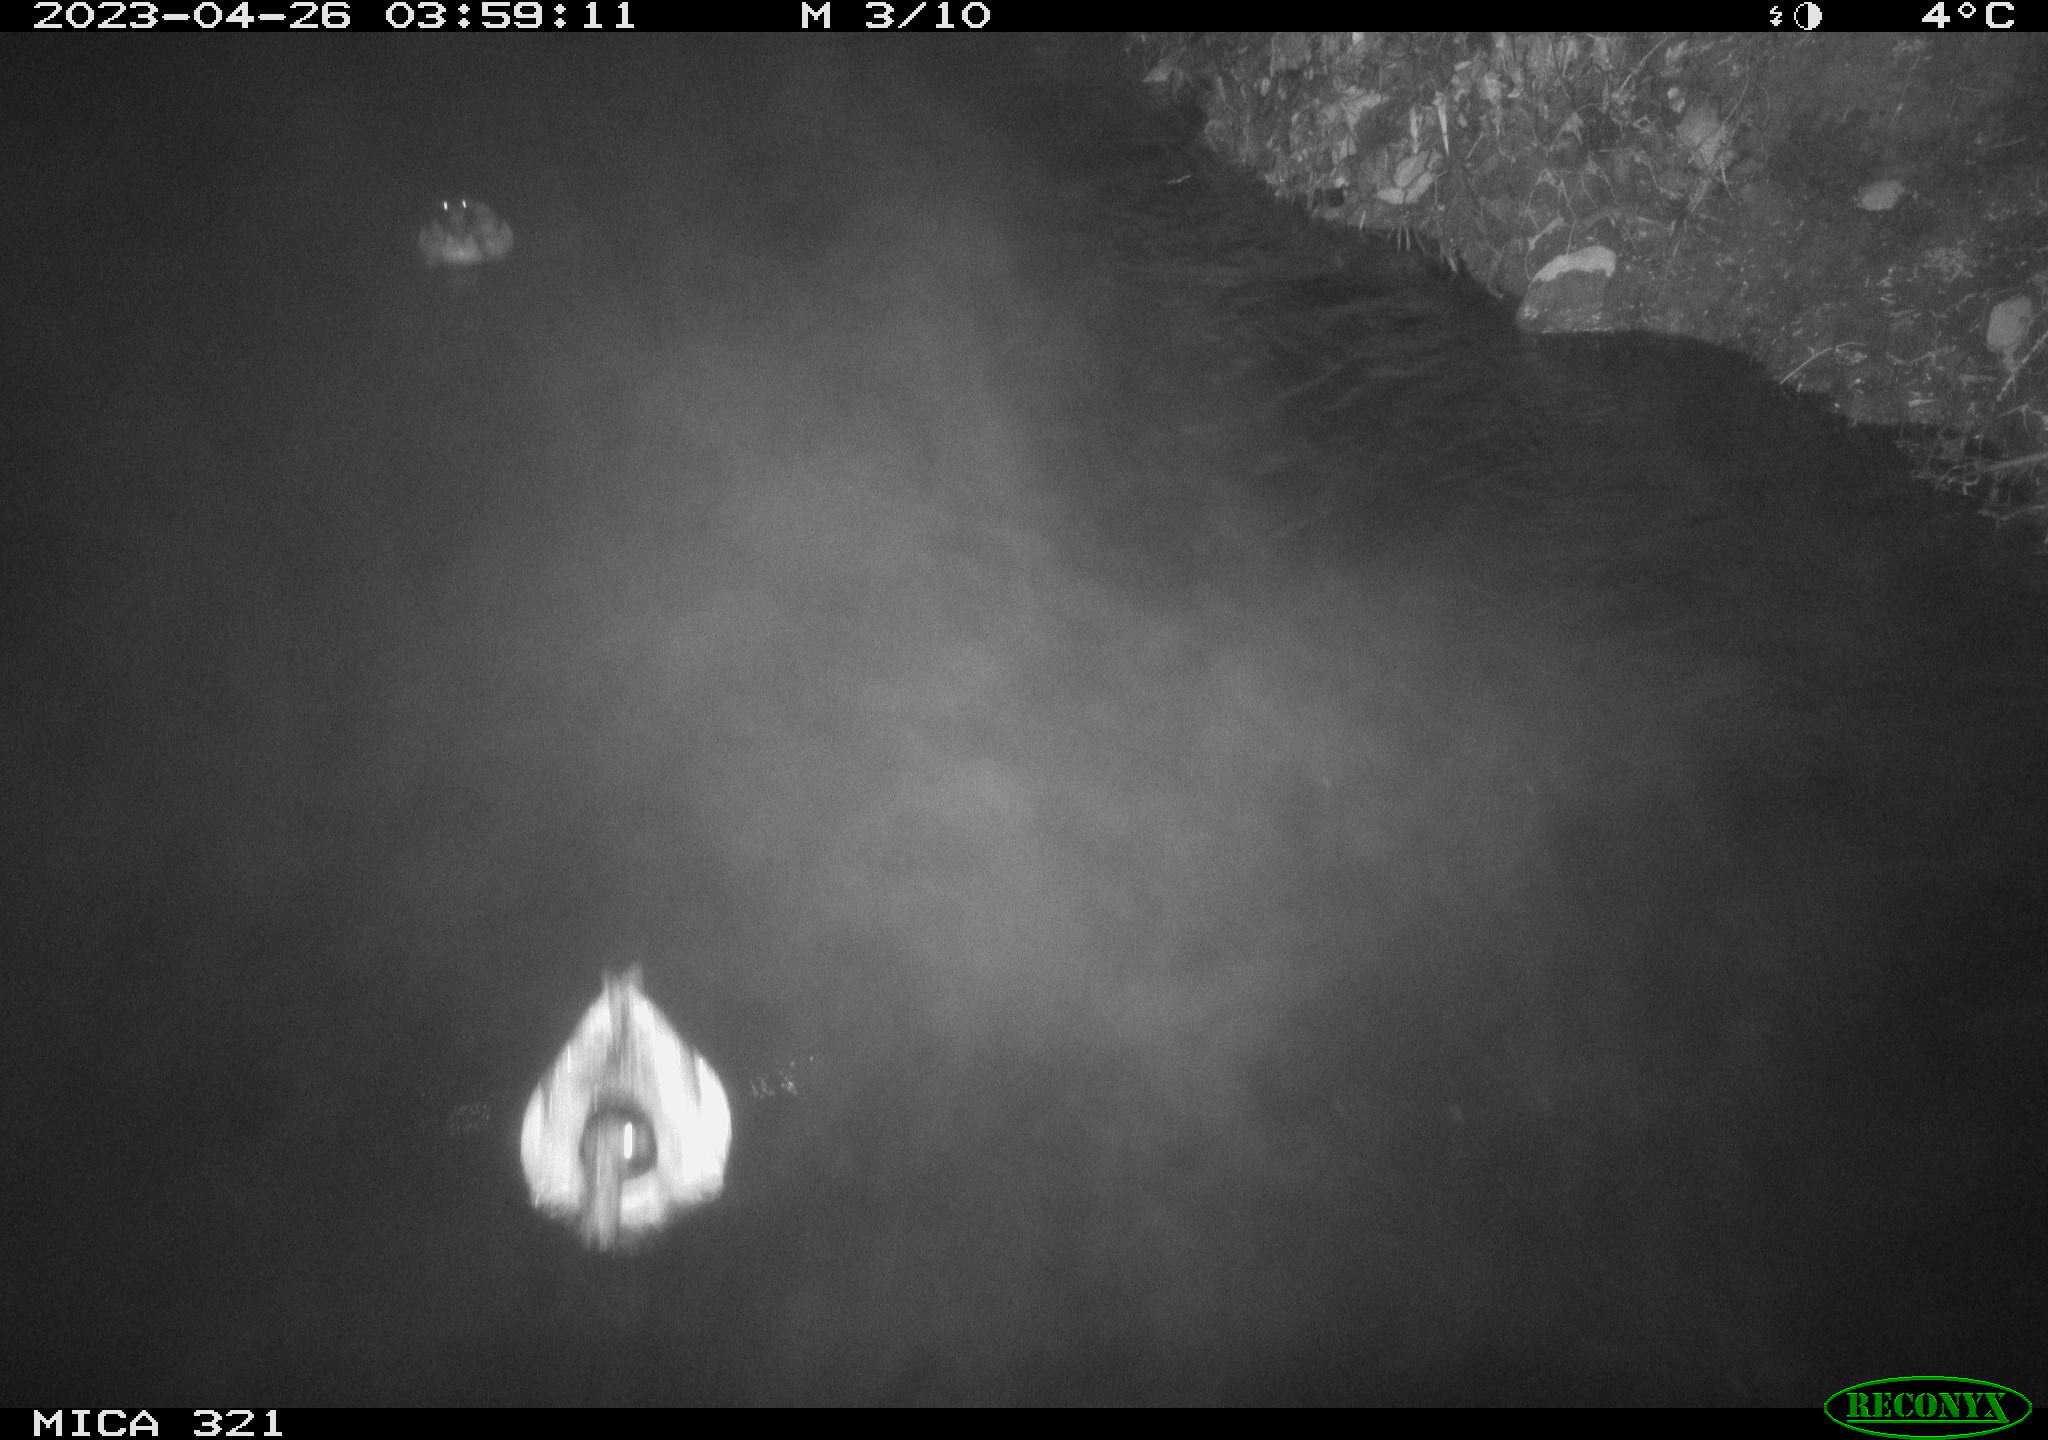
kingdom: Animalia
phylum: Chordata
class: Aves
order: Anseriformes
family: Anatidae
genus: Anas
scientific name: Anas
